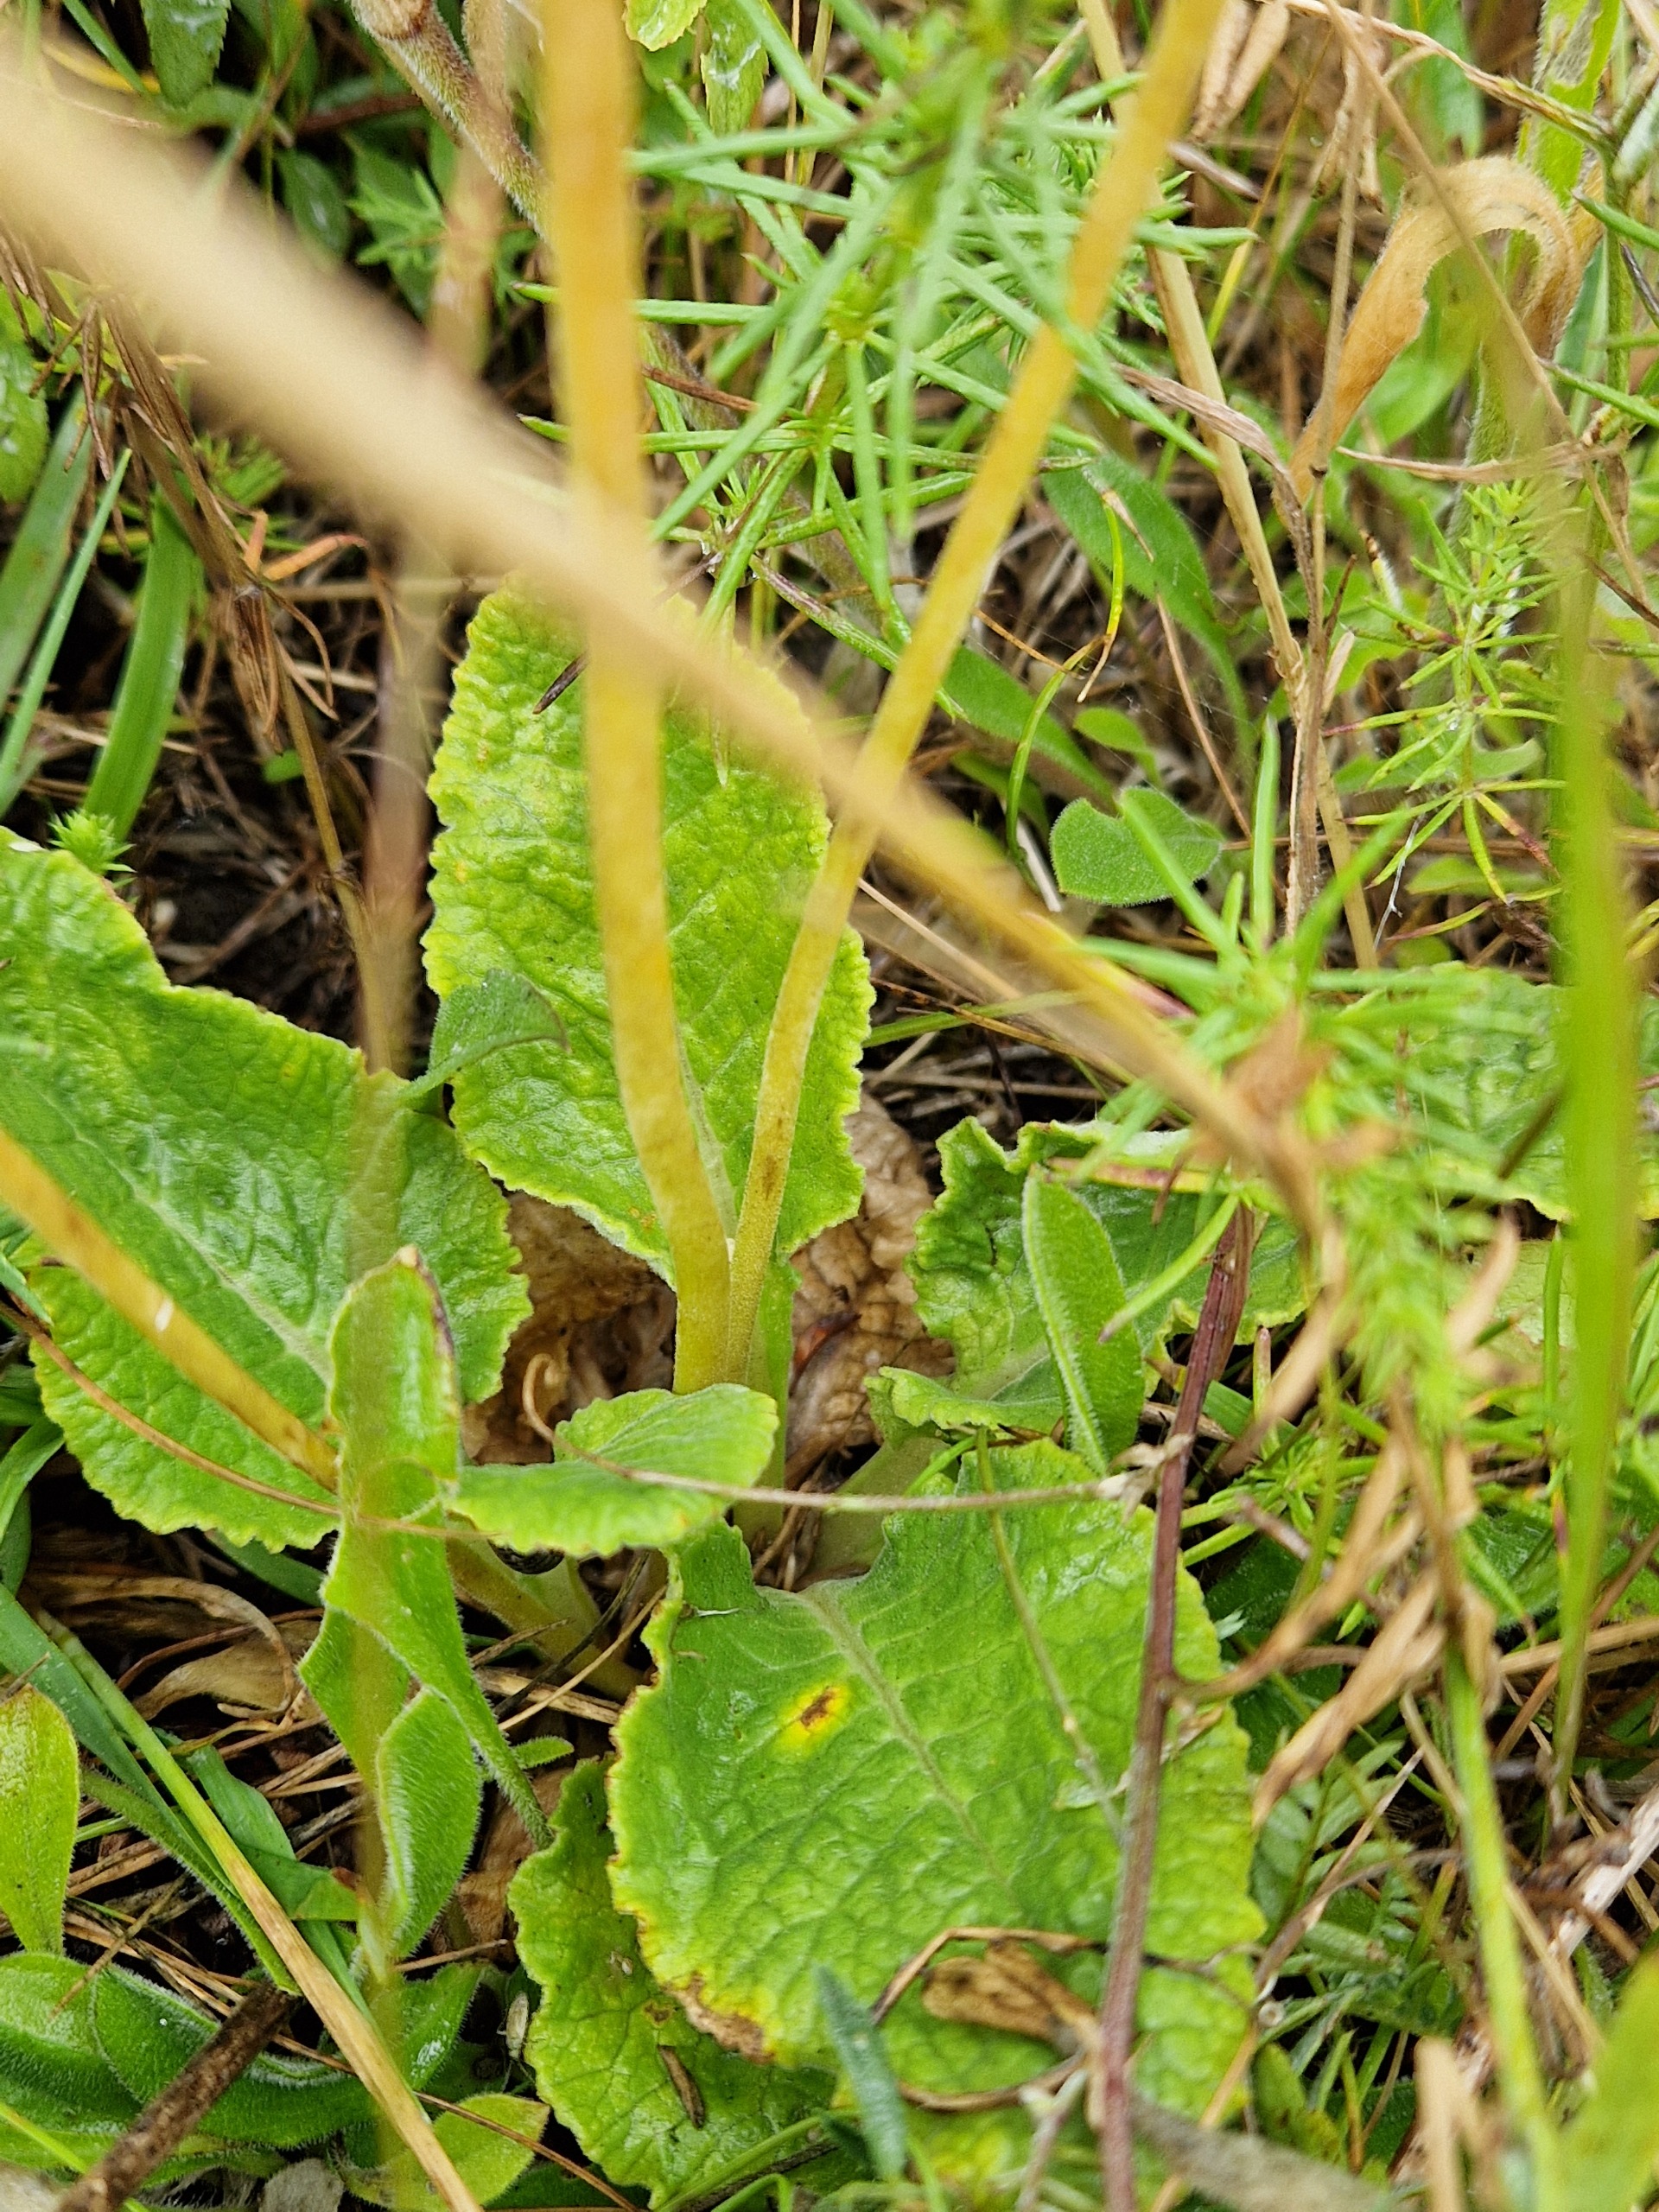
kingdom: Plantae
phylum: Tracheophyta
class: Magnoliopsida
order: Ericales
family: Primulaceae
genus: Primula
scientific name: Primula veris
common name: Hulkravet kodriver
